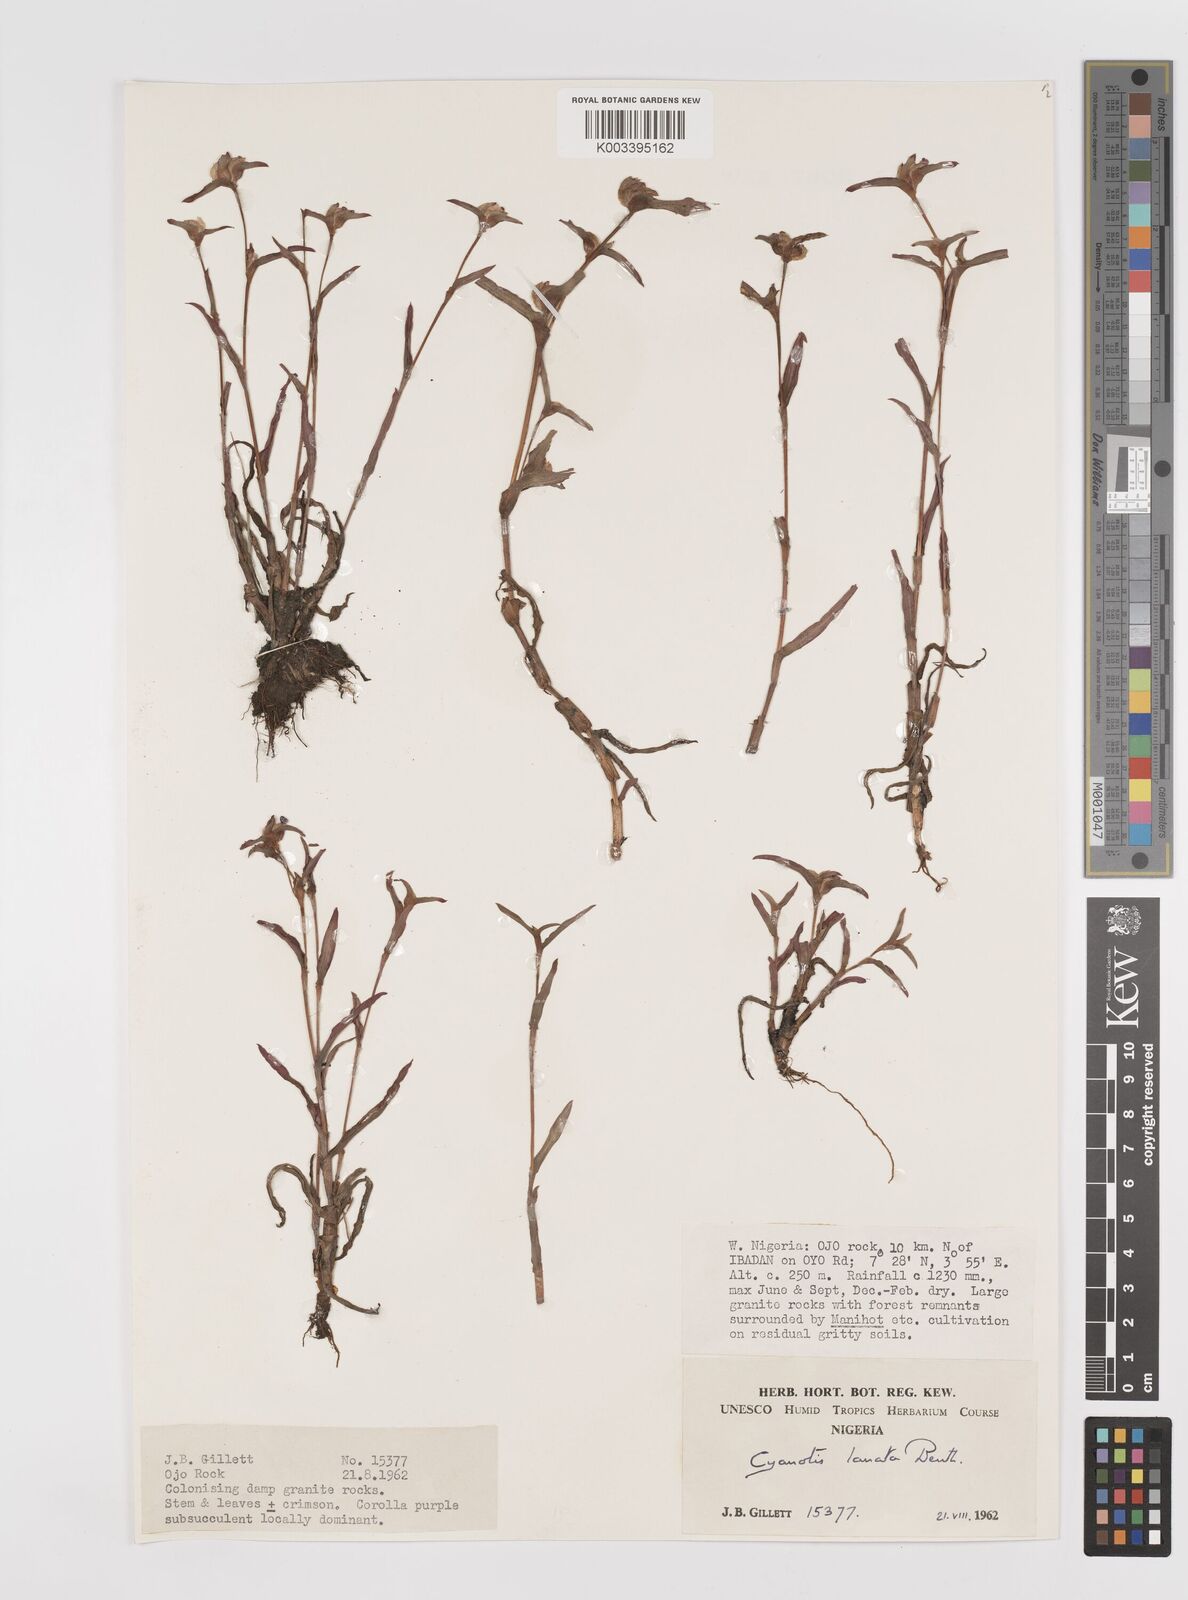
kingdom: Plantae
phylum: Tracheophyta
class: Liliopsida
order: Commelinales
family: Commelinaceae
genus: Cyanotis
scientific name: Cyanotis lanata
